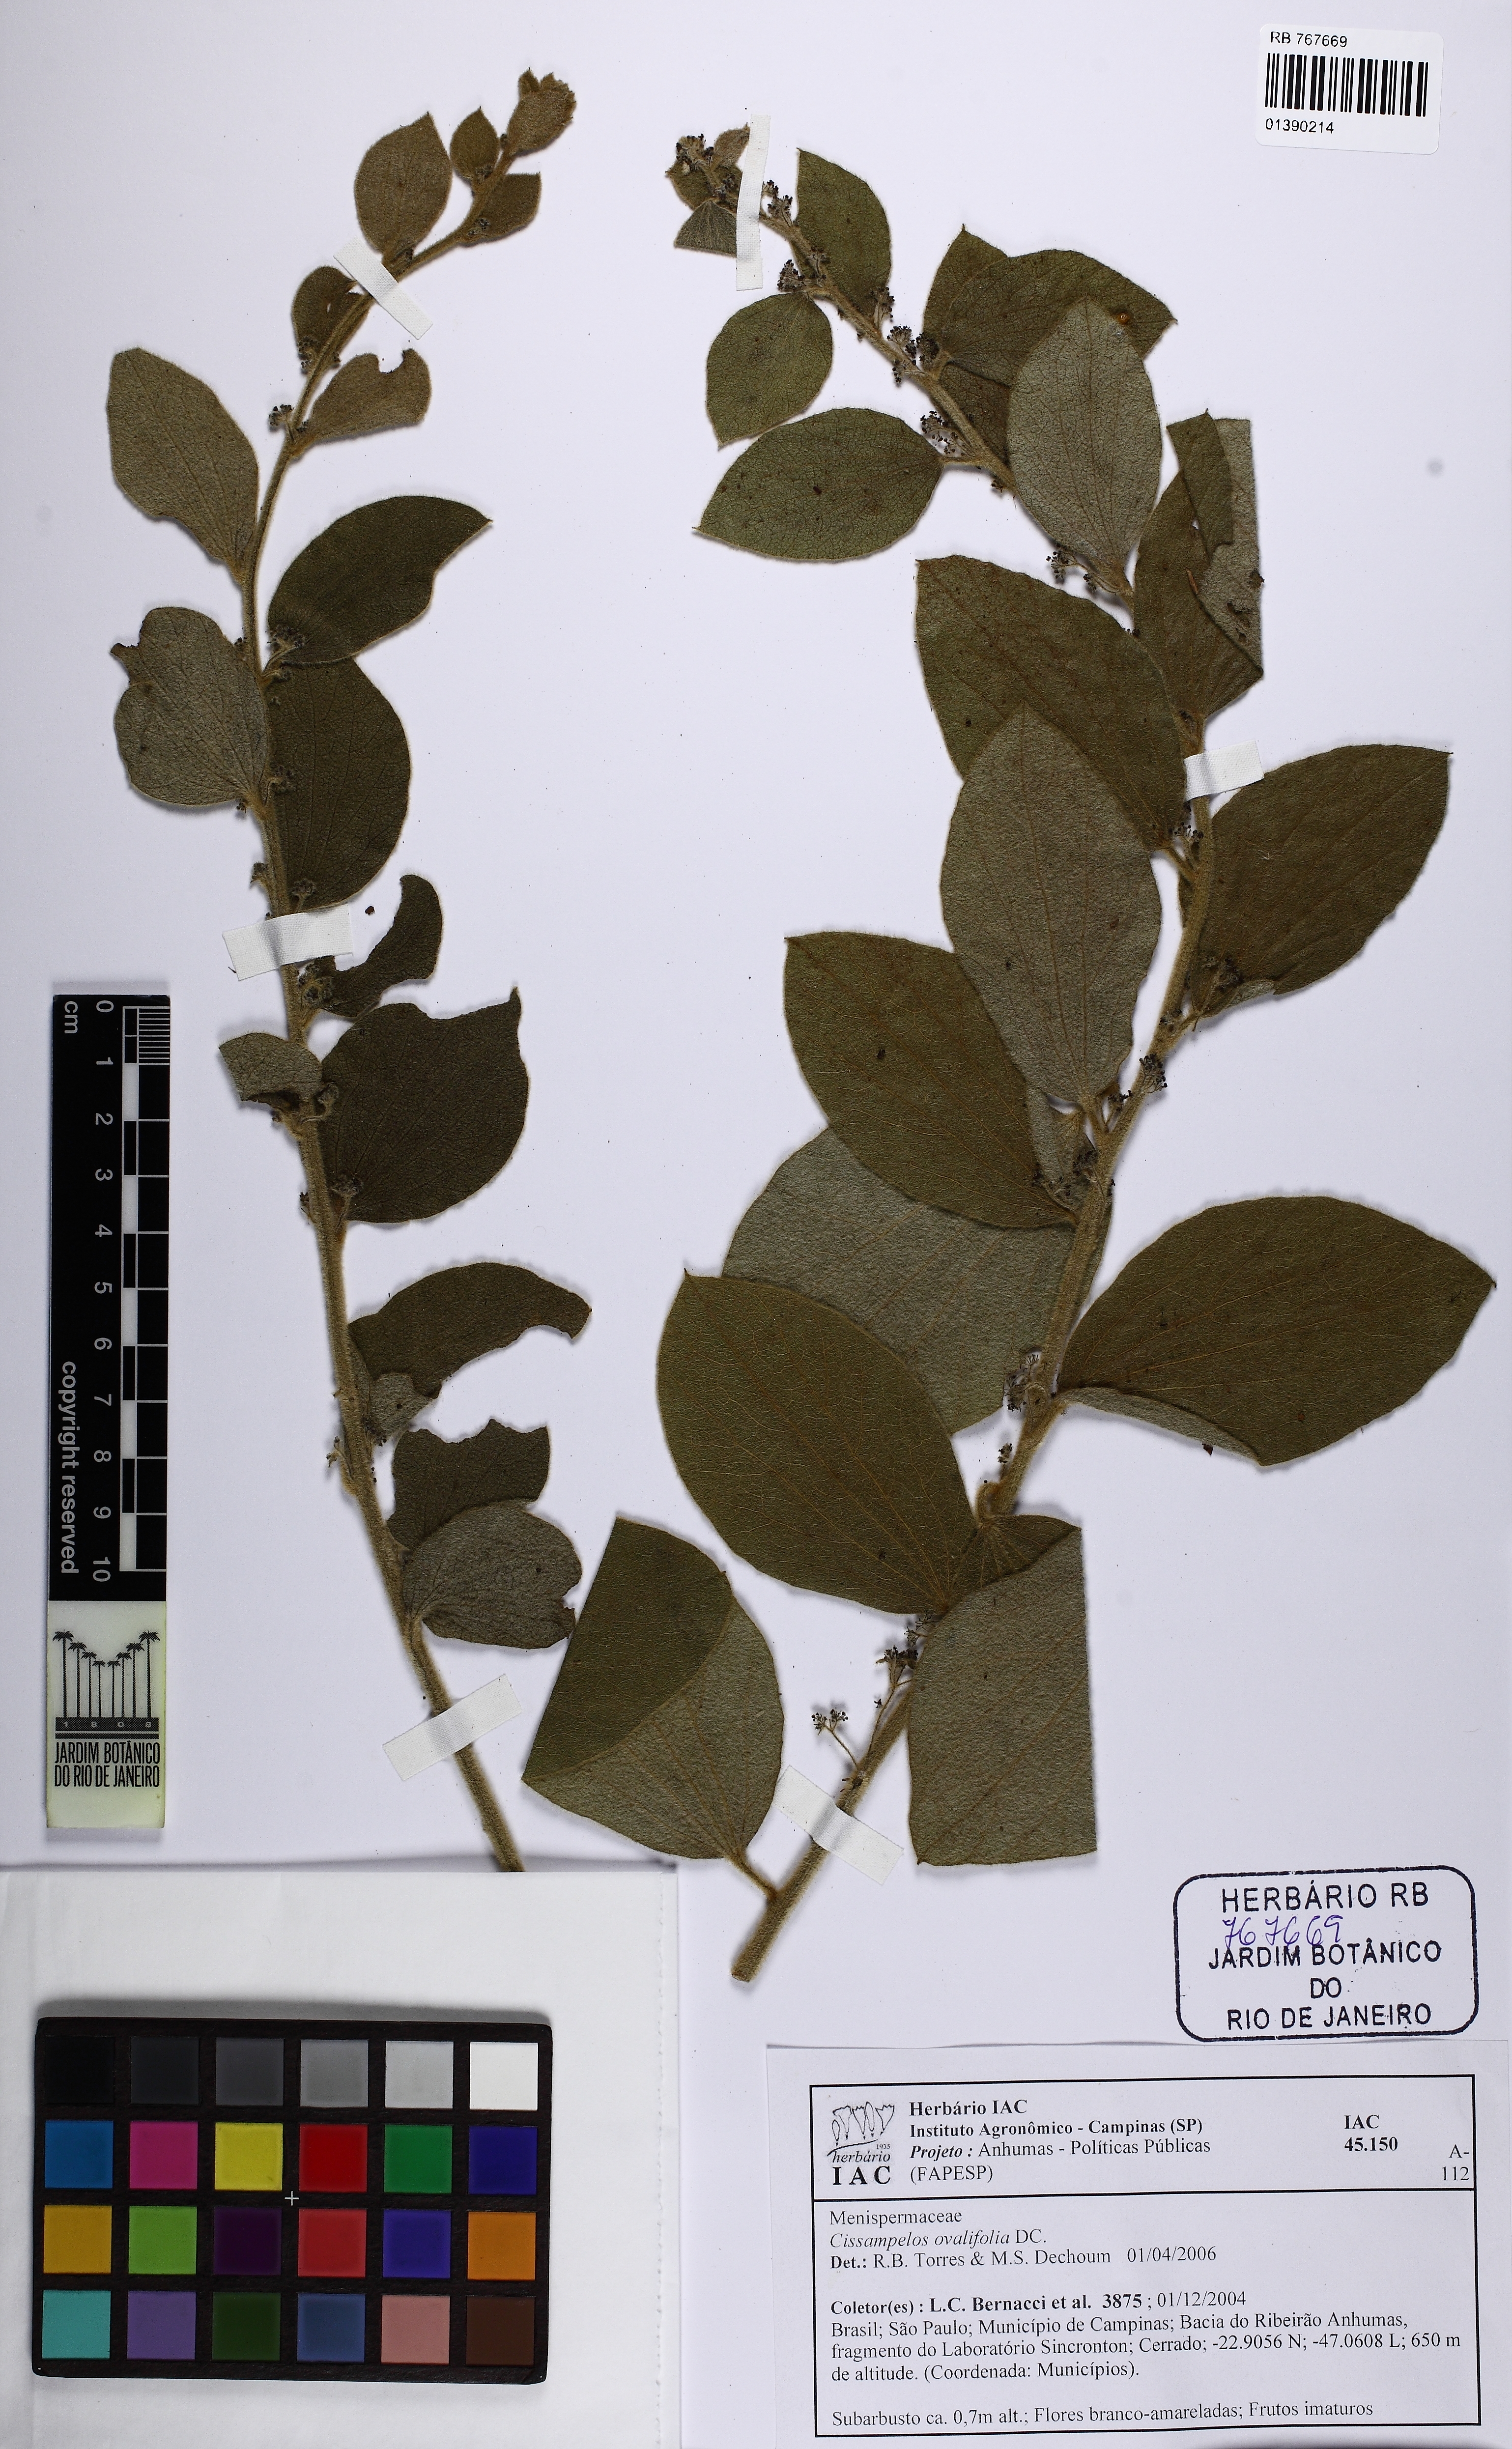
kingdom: Plantae
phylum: Tracheophyta
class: Magnoliopsida
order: Ranunculales
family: Menispermaceae
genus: Cissampelos
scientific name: Cissampelos ovalifolia
